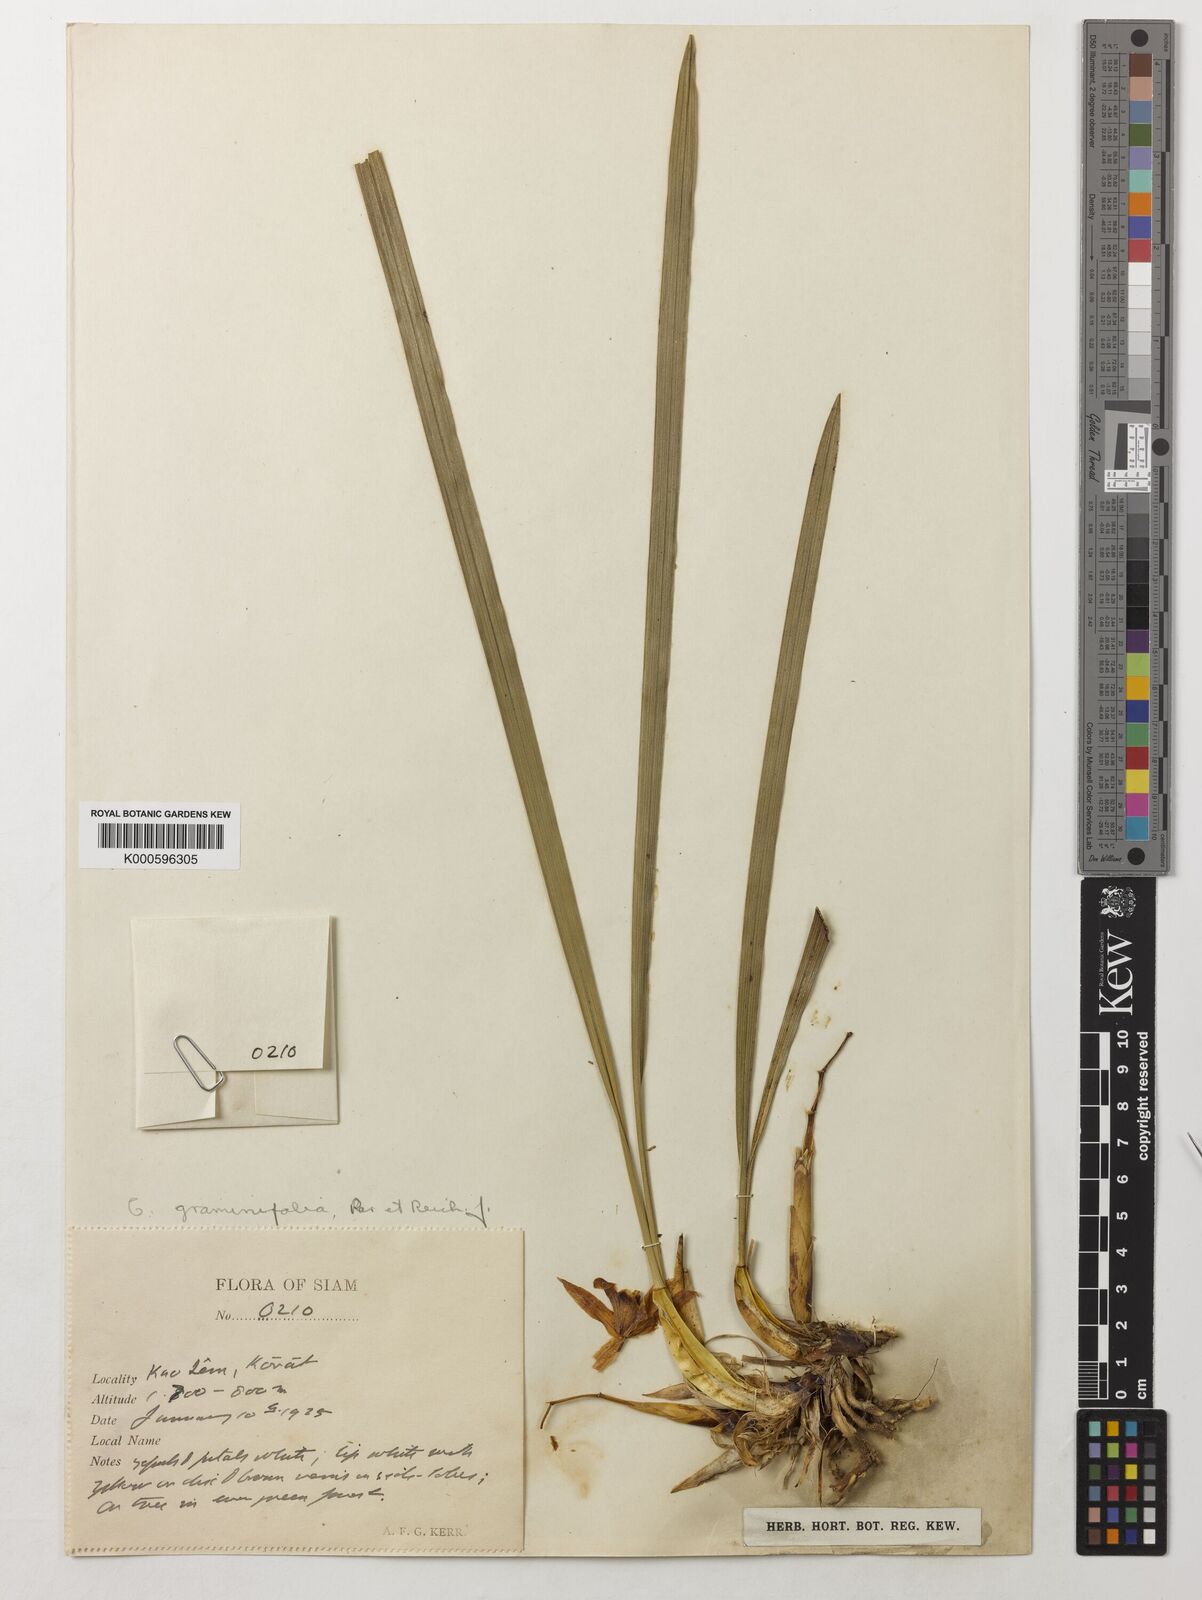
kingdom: Plantae
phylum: Tracheophyta
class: Liliopsida
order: Asparagales
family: Orchidaceae
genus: Coelogyne
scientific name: Coelogyne viscosa
